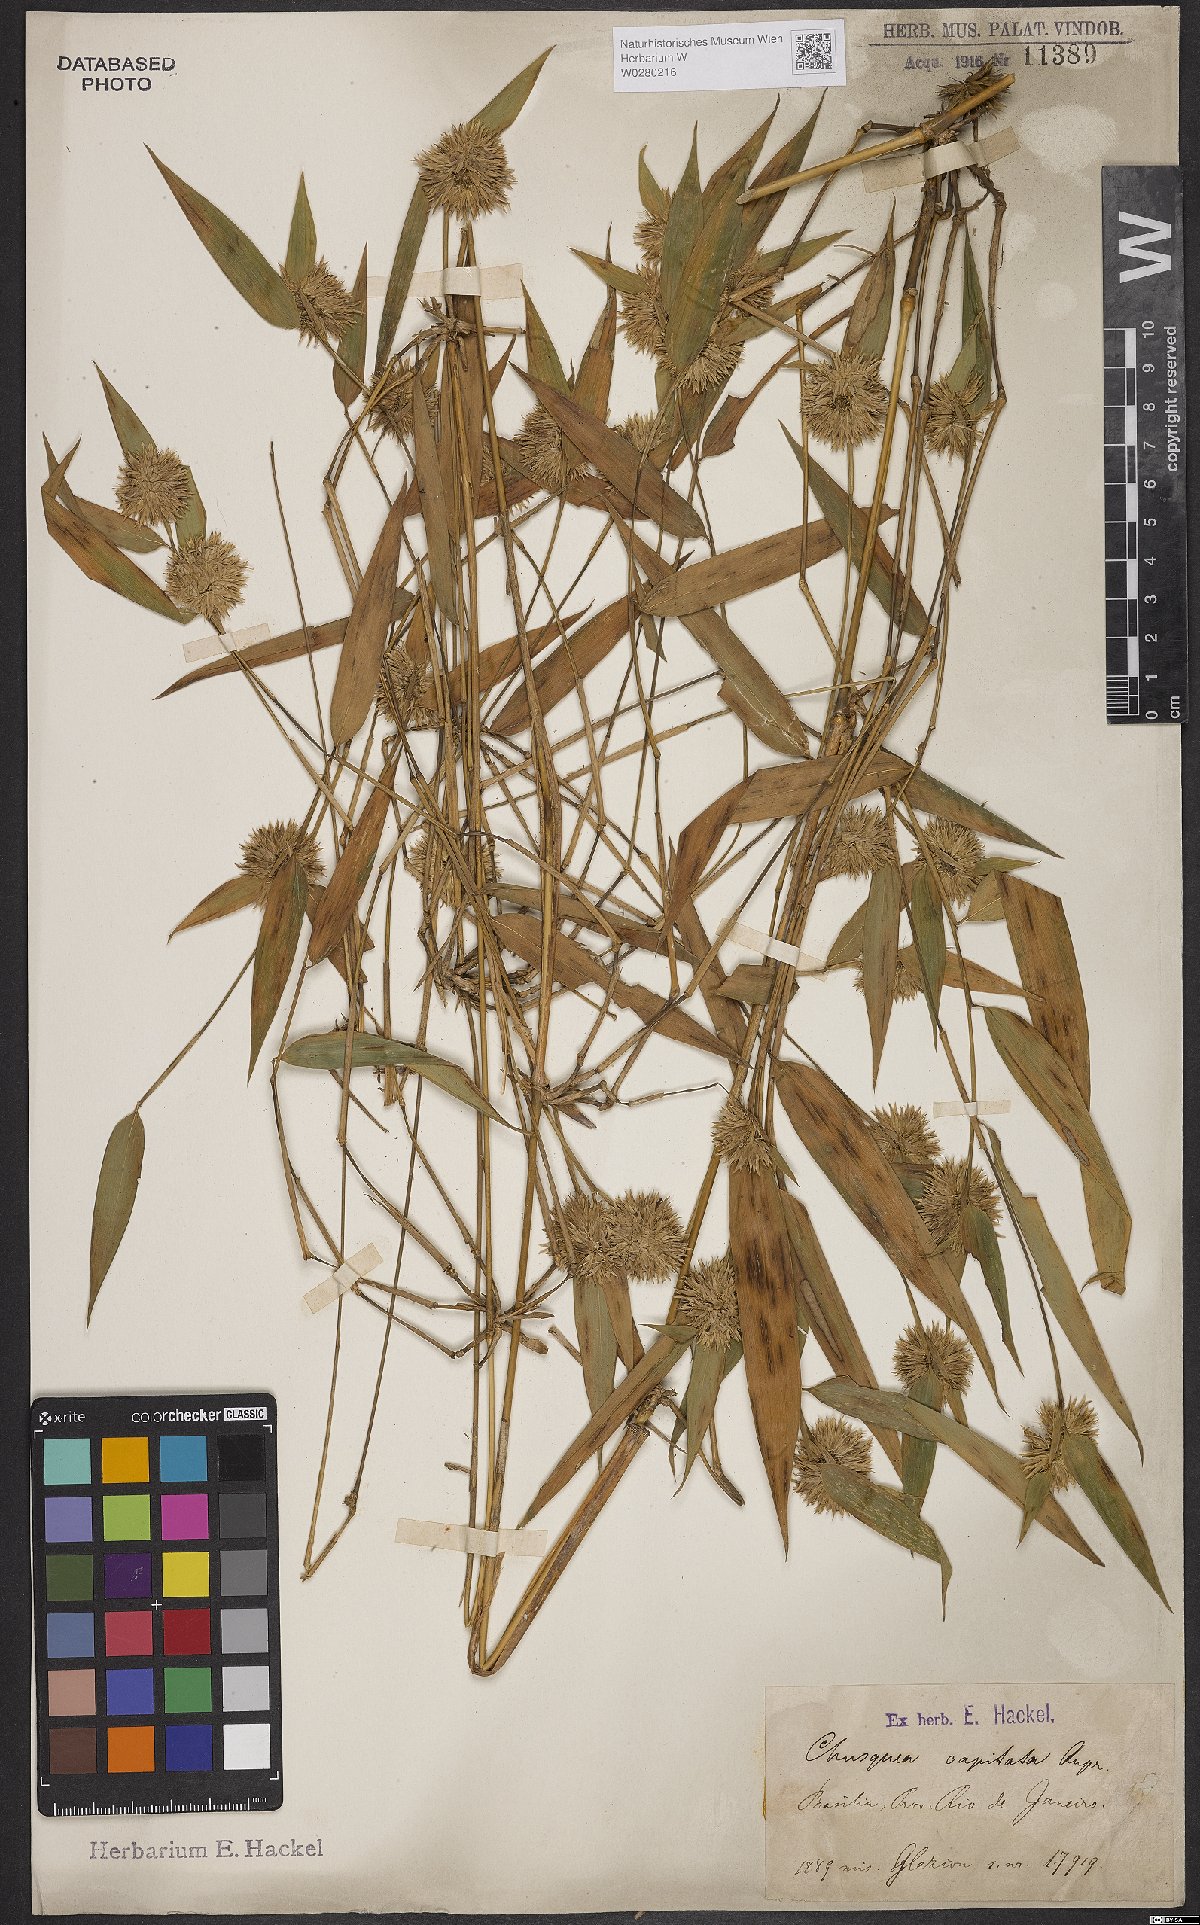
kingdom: Plantae
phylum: Tracheophyta
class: Liliopsida
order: Poales
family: Poaceae
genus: Chusquea
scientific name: Chusquea capitata
